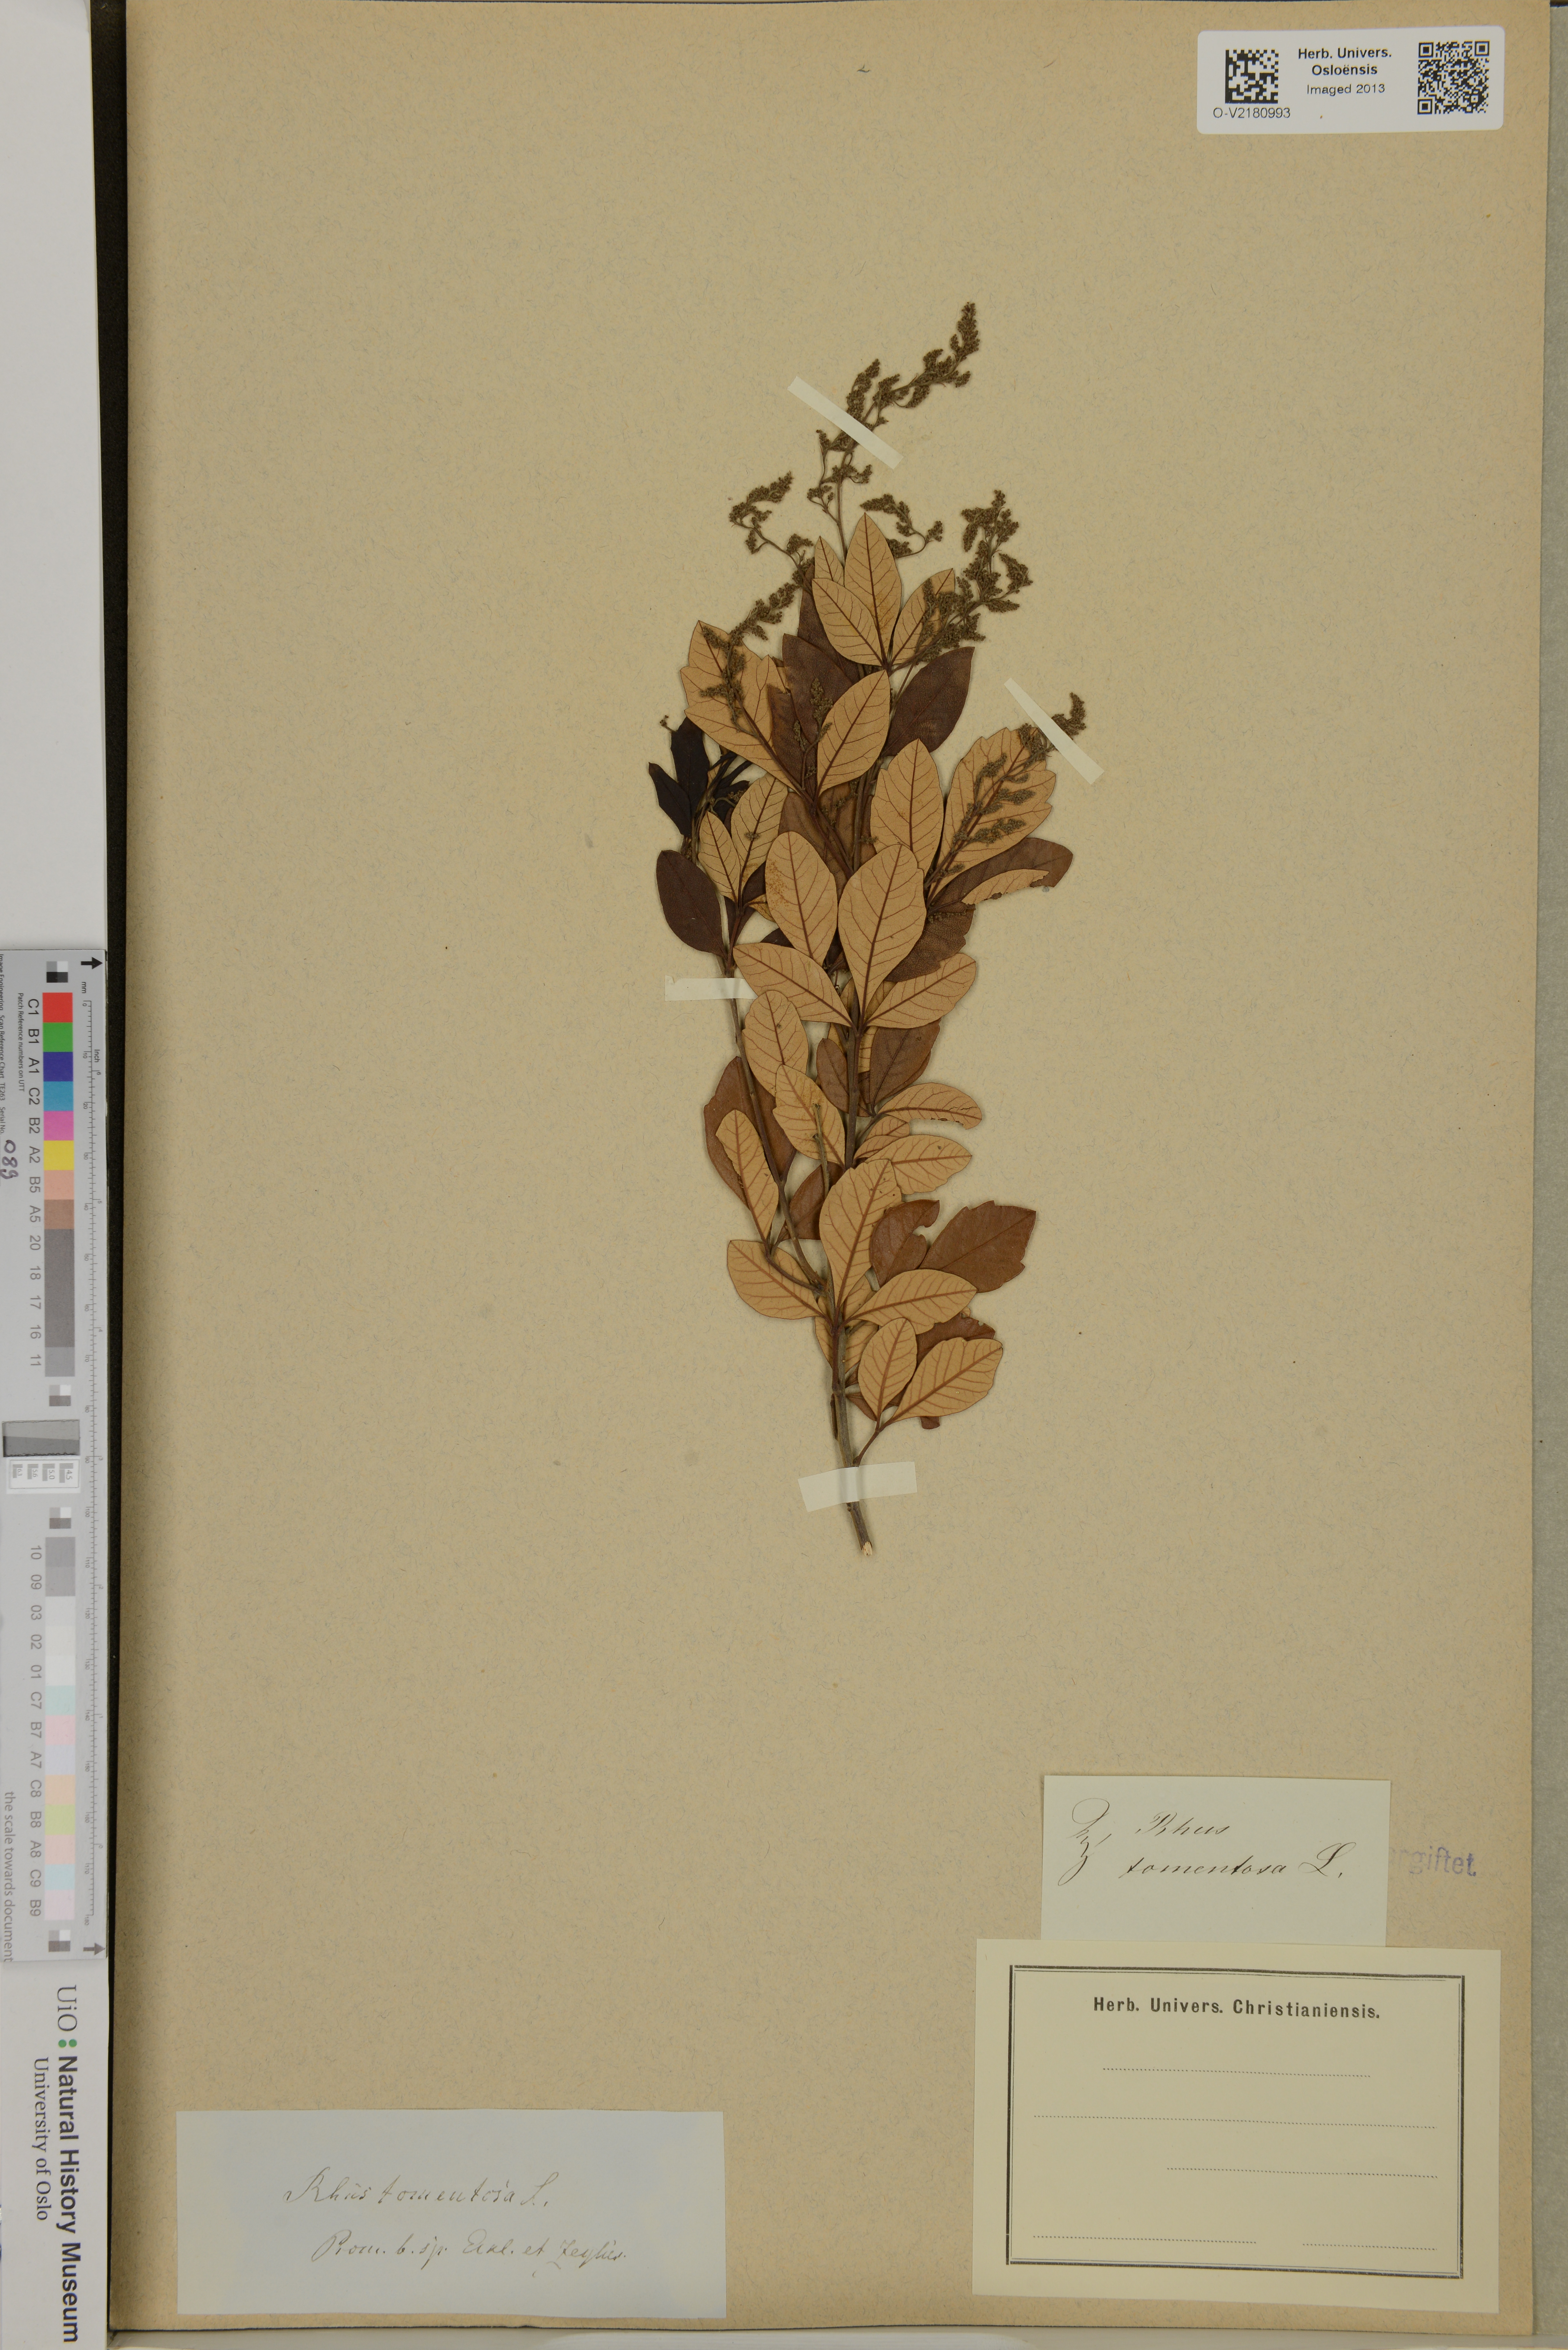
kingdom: Plantae
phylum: Tracheophyta
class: Magnoliopsida
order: Sapindales
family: Anacardiaceae
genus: Searsia
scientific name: Searsia tomentosa
